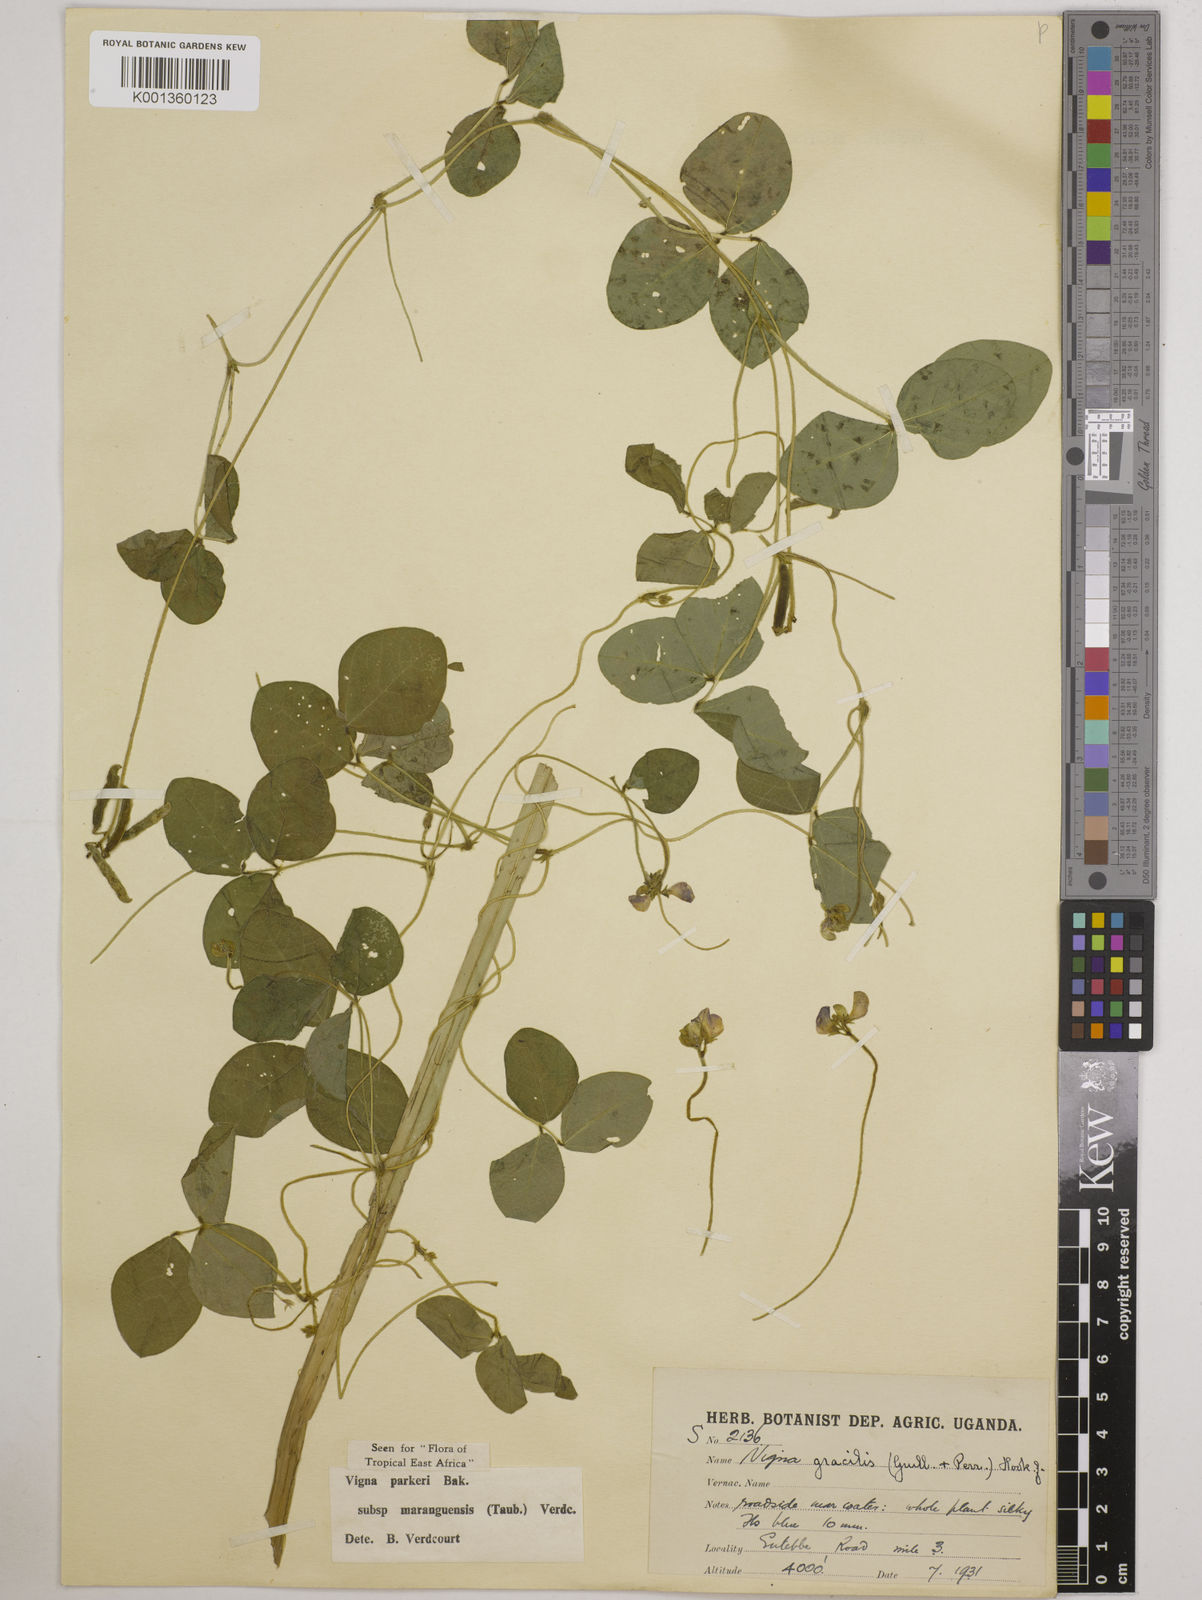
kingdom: Plantae
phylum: Tracheophyta
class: Magnoliopsida
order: Fabales
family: Fabaceae
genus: Vigna
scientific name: Vigna
